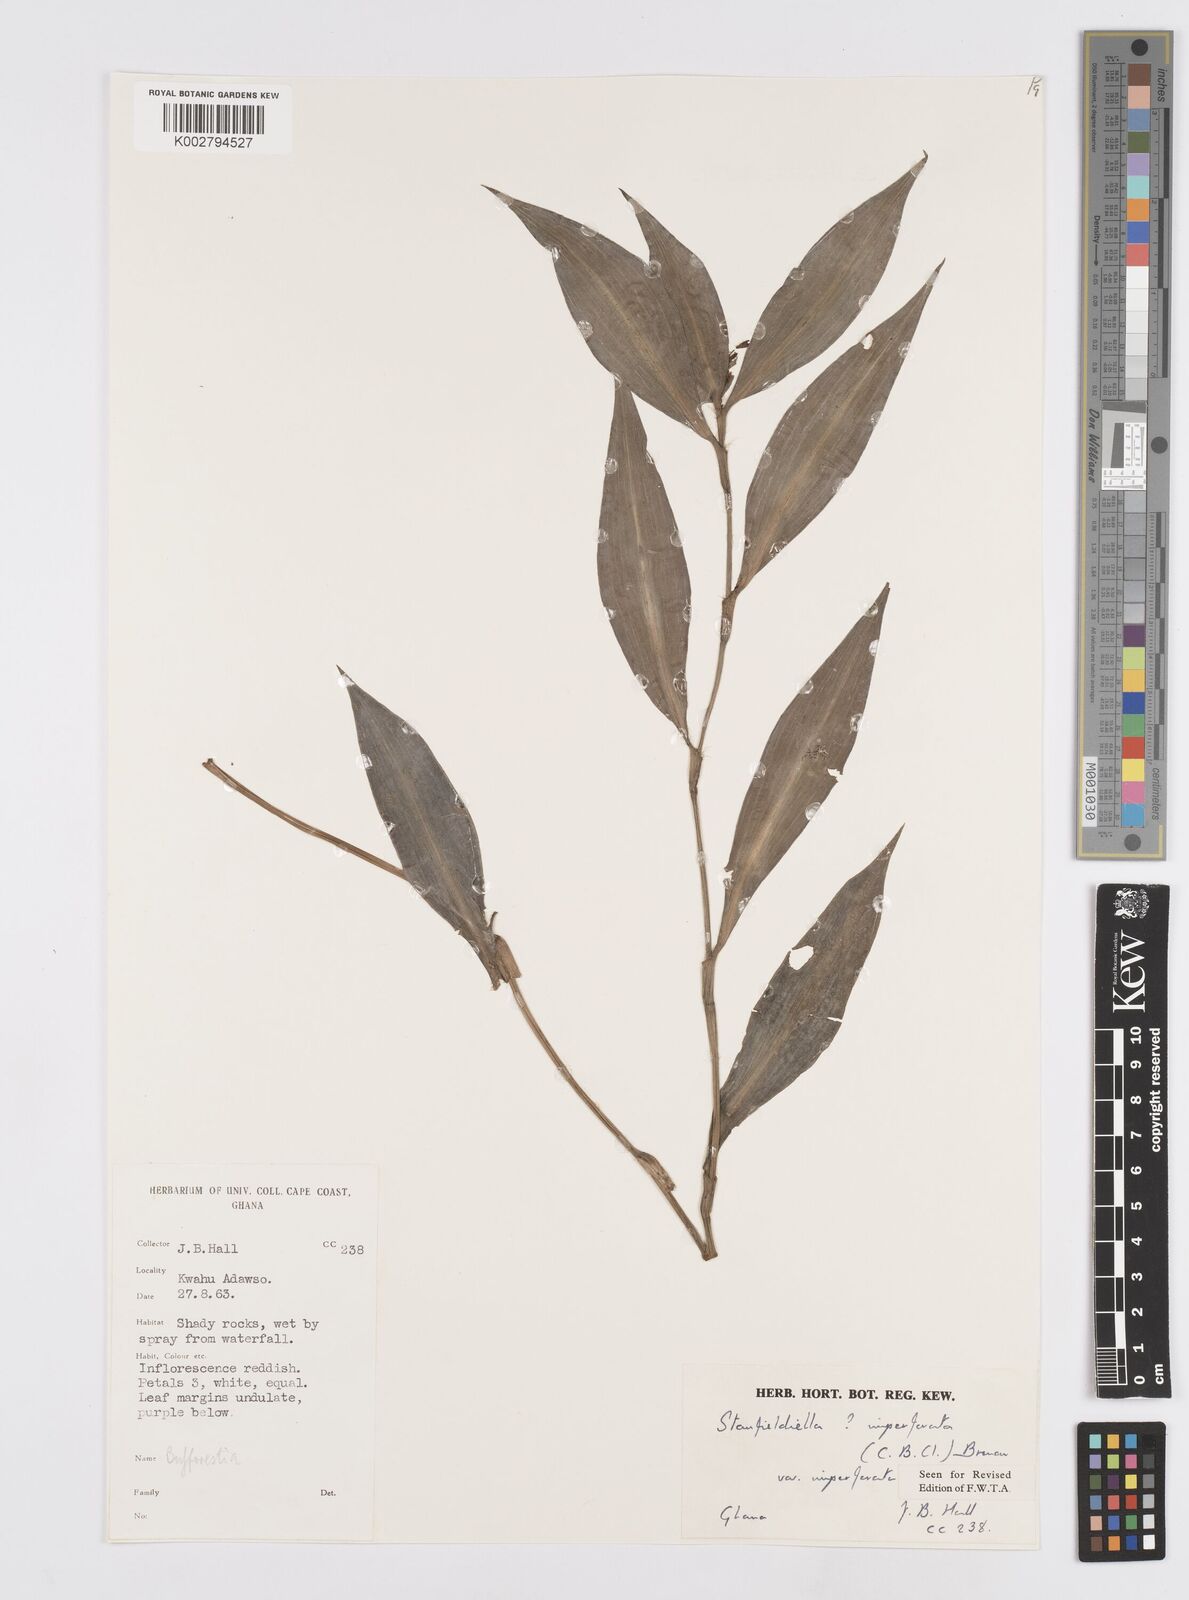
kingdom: Plantae
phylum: Tracheophyta
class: Liliopsida
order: Commelinales
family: Commelinaceae
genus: Stanfieldiella
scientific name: Stanfieldiella imperforata
